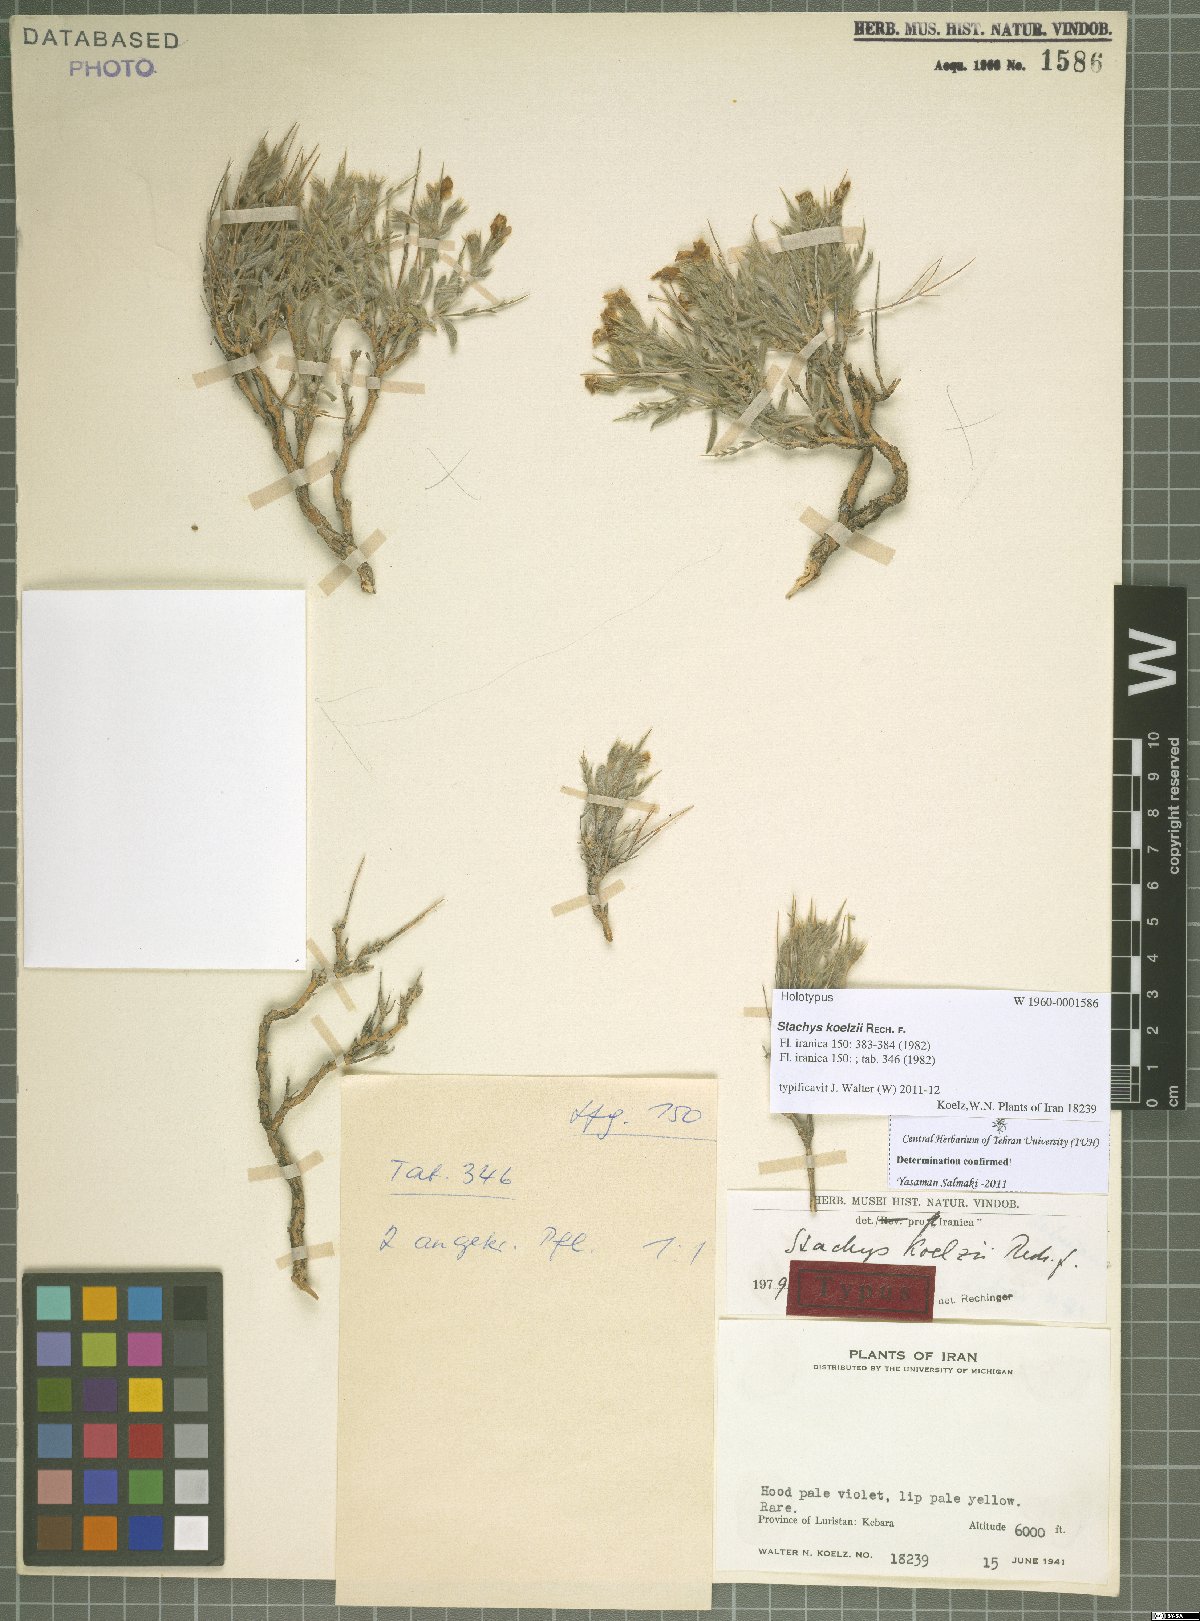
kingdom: Plantae
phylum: Tracheophyta
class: Magnoliopsida
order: Lamiales
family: Lamiaceae
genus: Stachys
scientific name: Stachys aucheri
